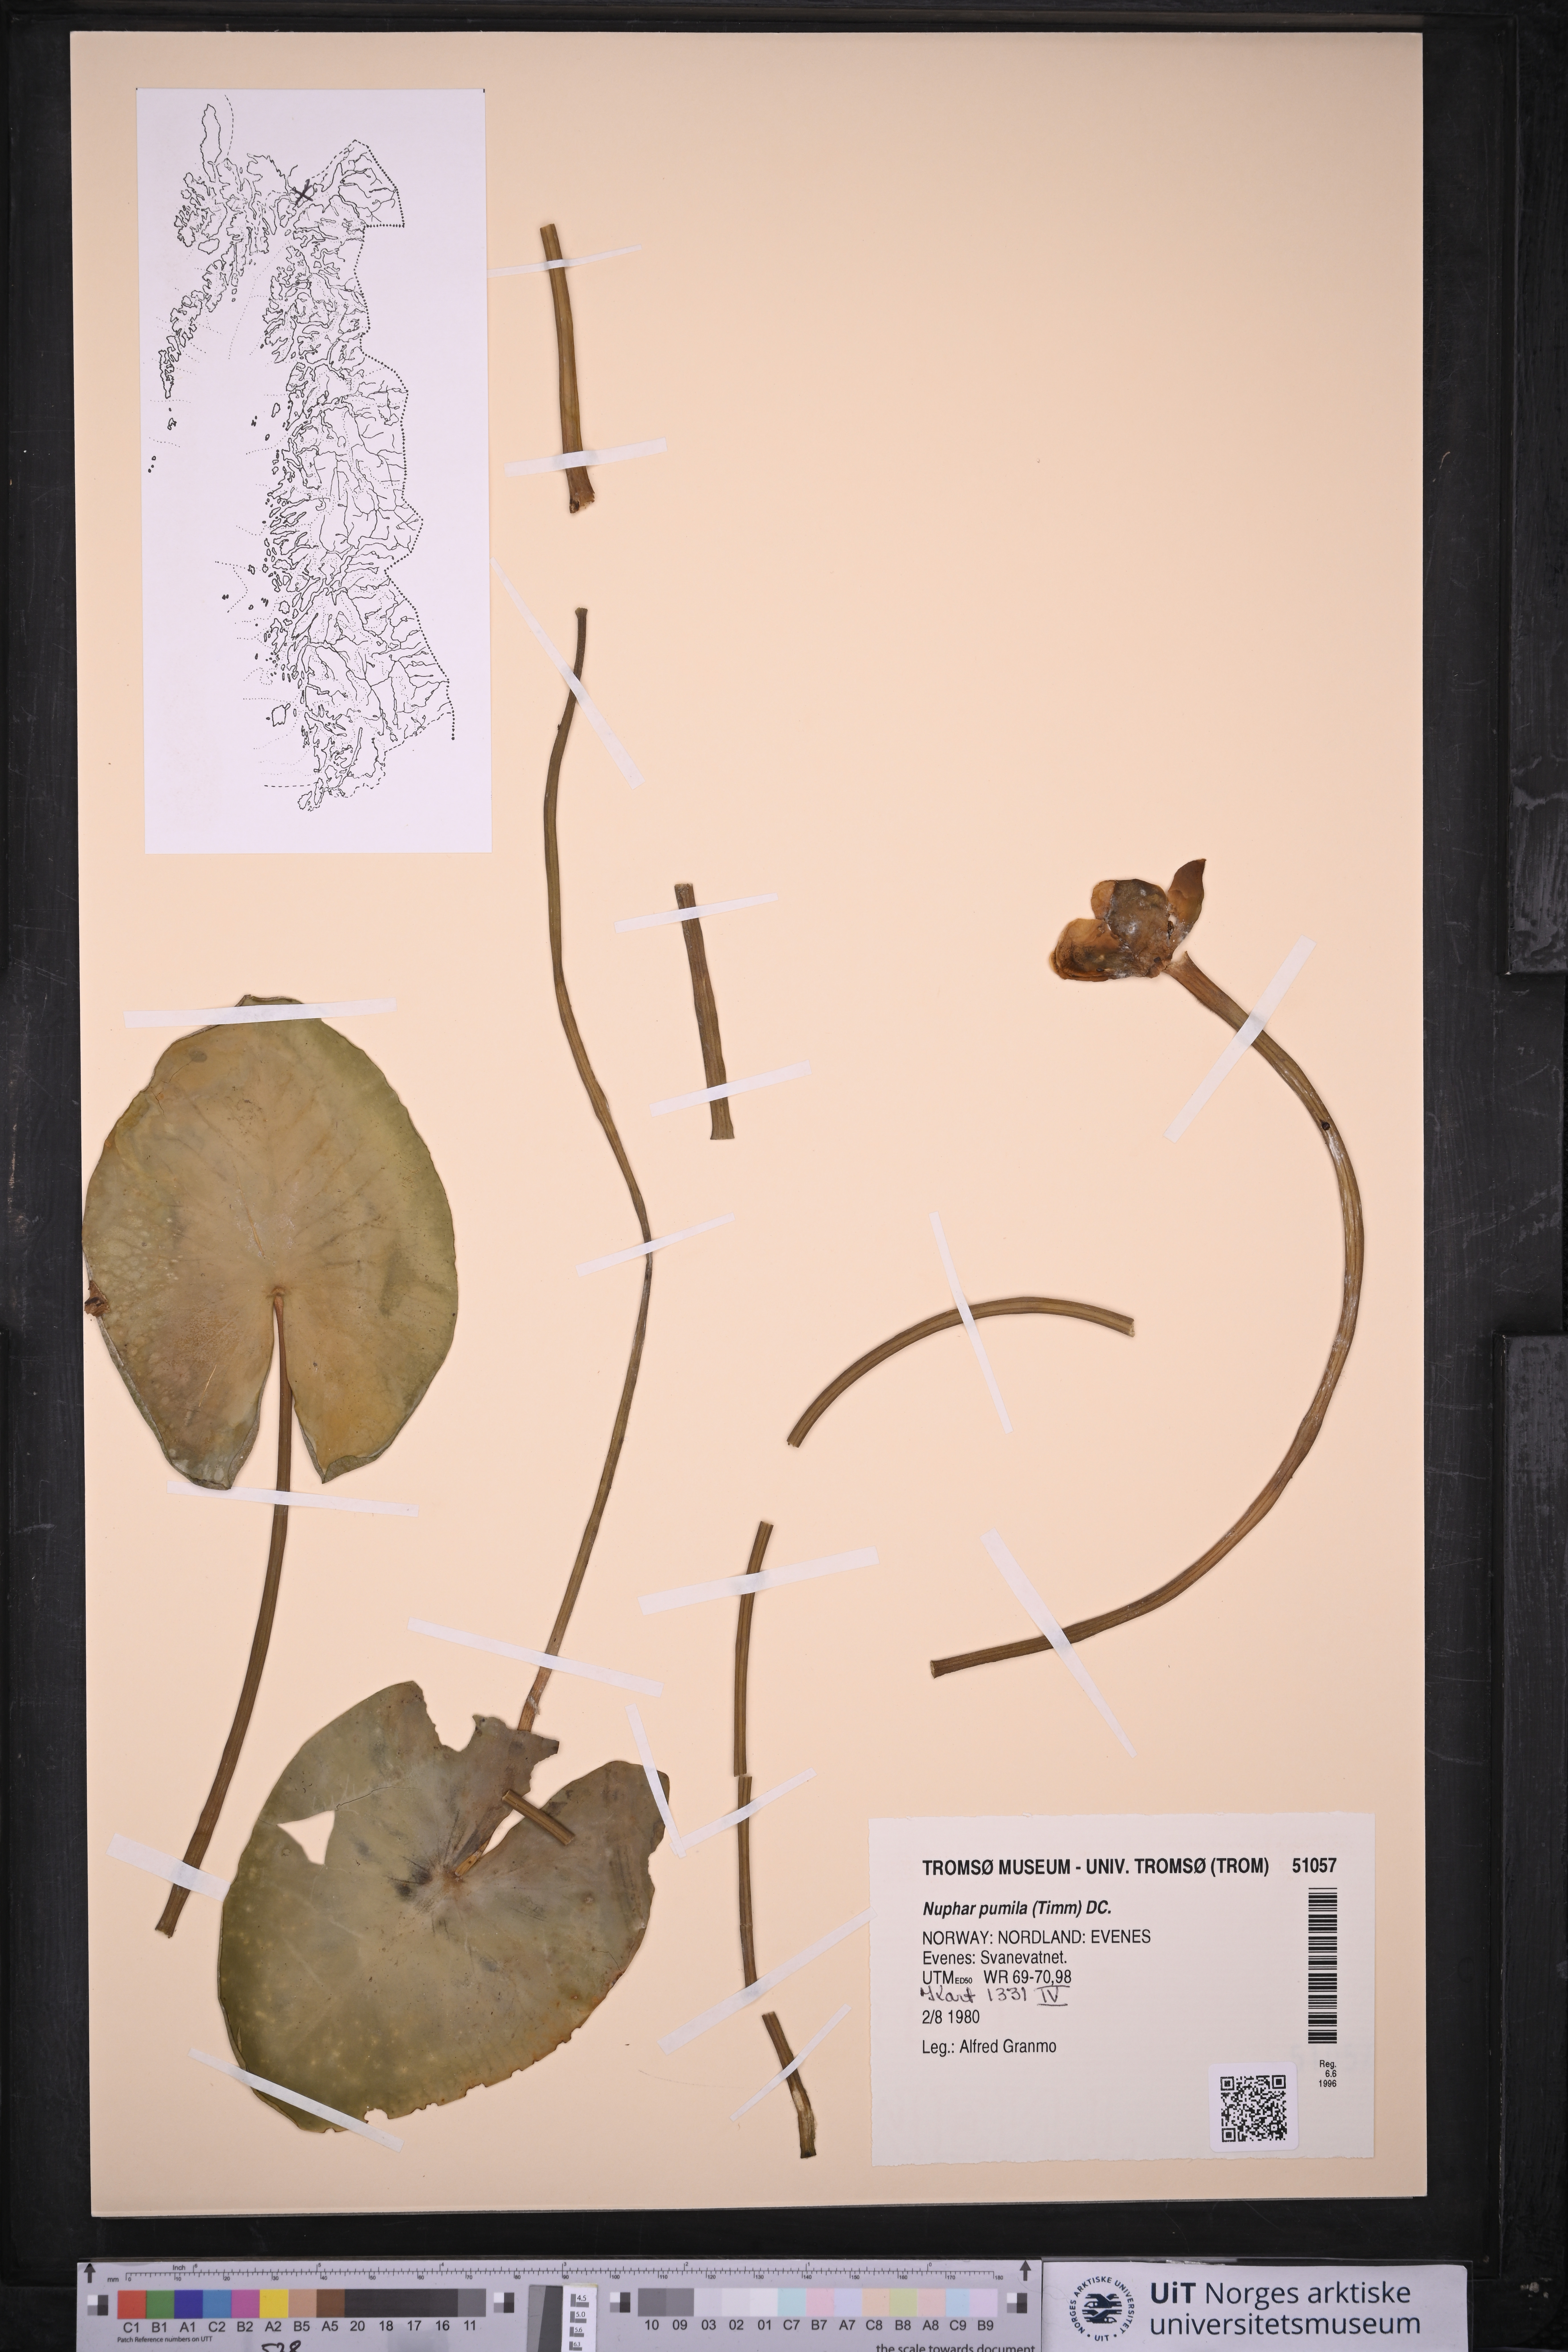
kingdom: Plantae
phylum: Tracheophyta
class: Magnoliopsida
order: Nymphaeales
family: Nymphaeaceae
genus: Nuphar
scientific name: Nuphar pumila
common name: Least water-lily
